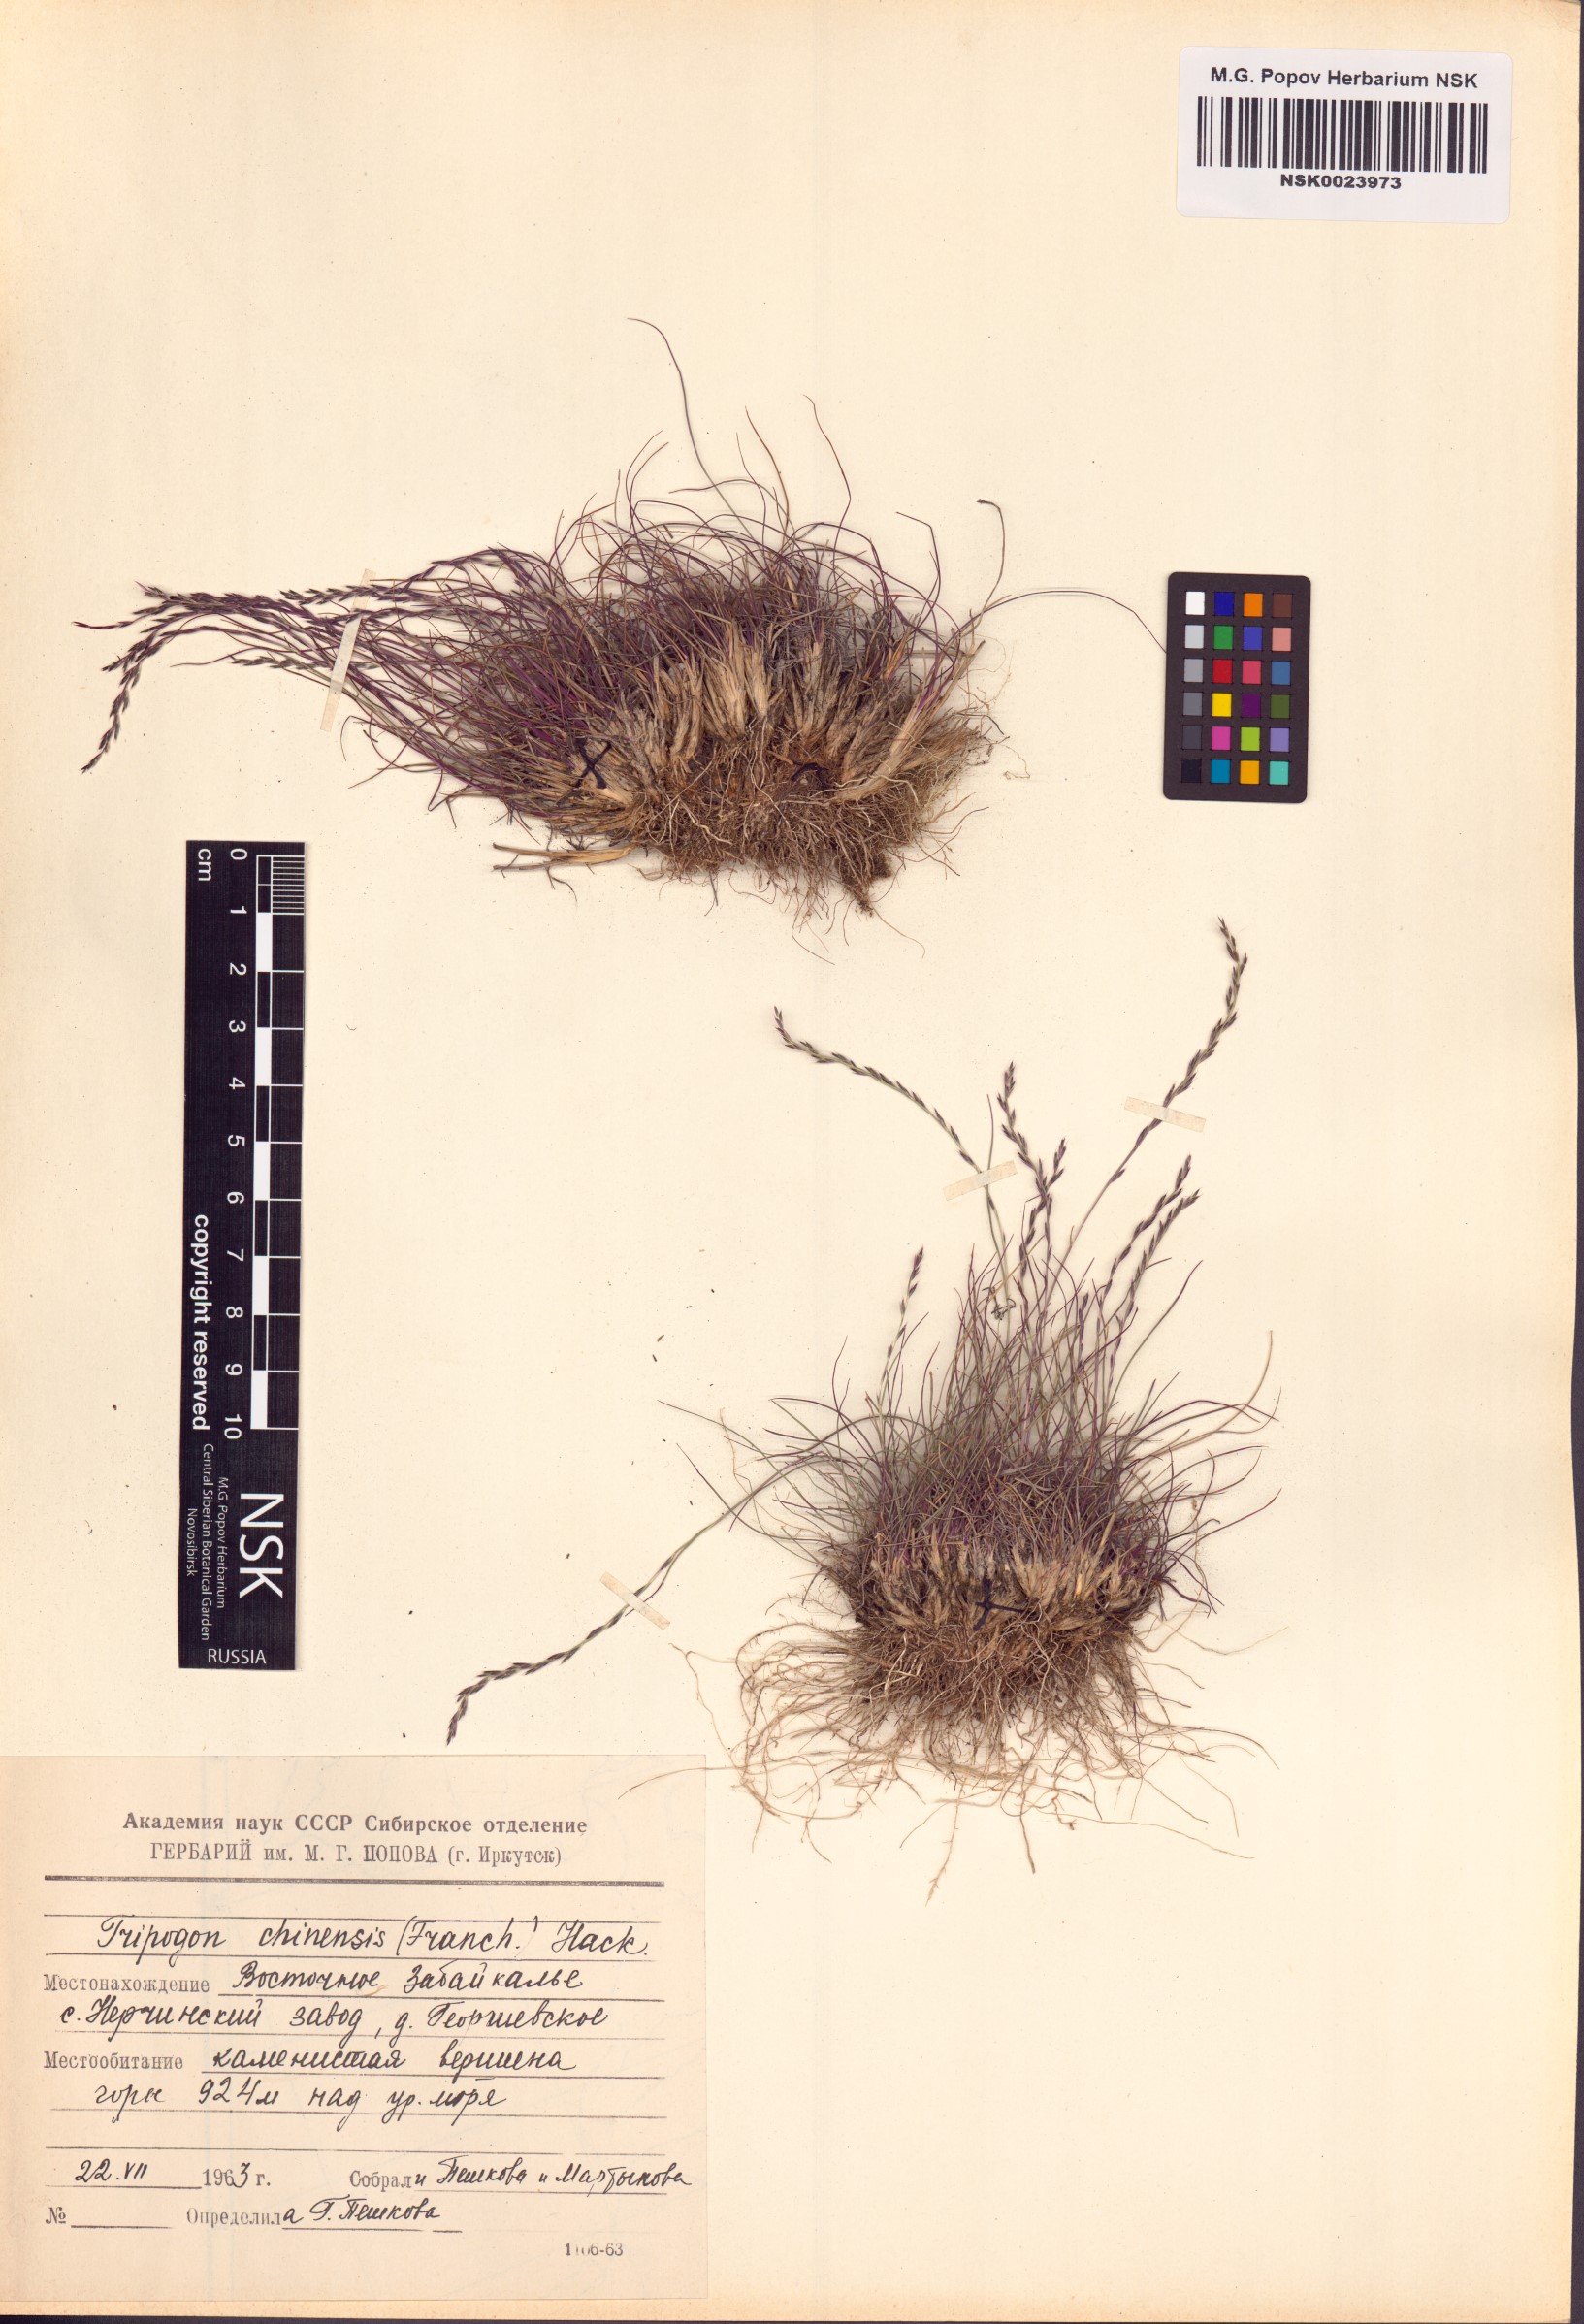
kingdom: Plantae
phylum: Tracheophyta
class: Liliopsida
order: Poales
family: Poaceae
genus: Tripogon
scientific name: Tripogon chinensis
